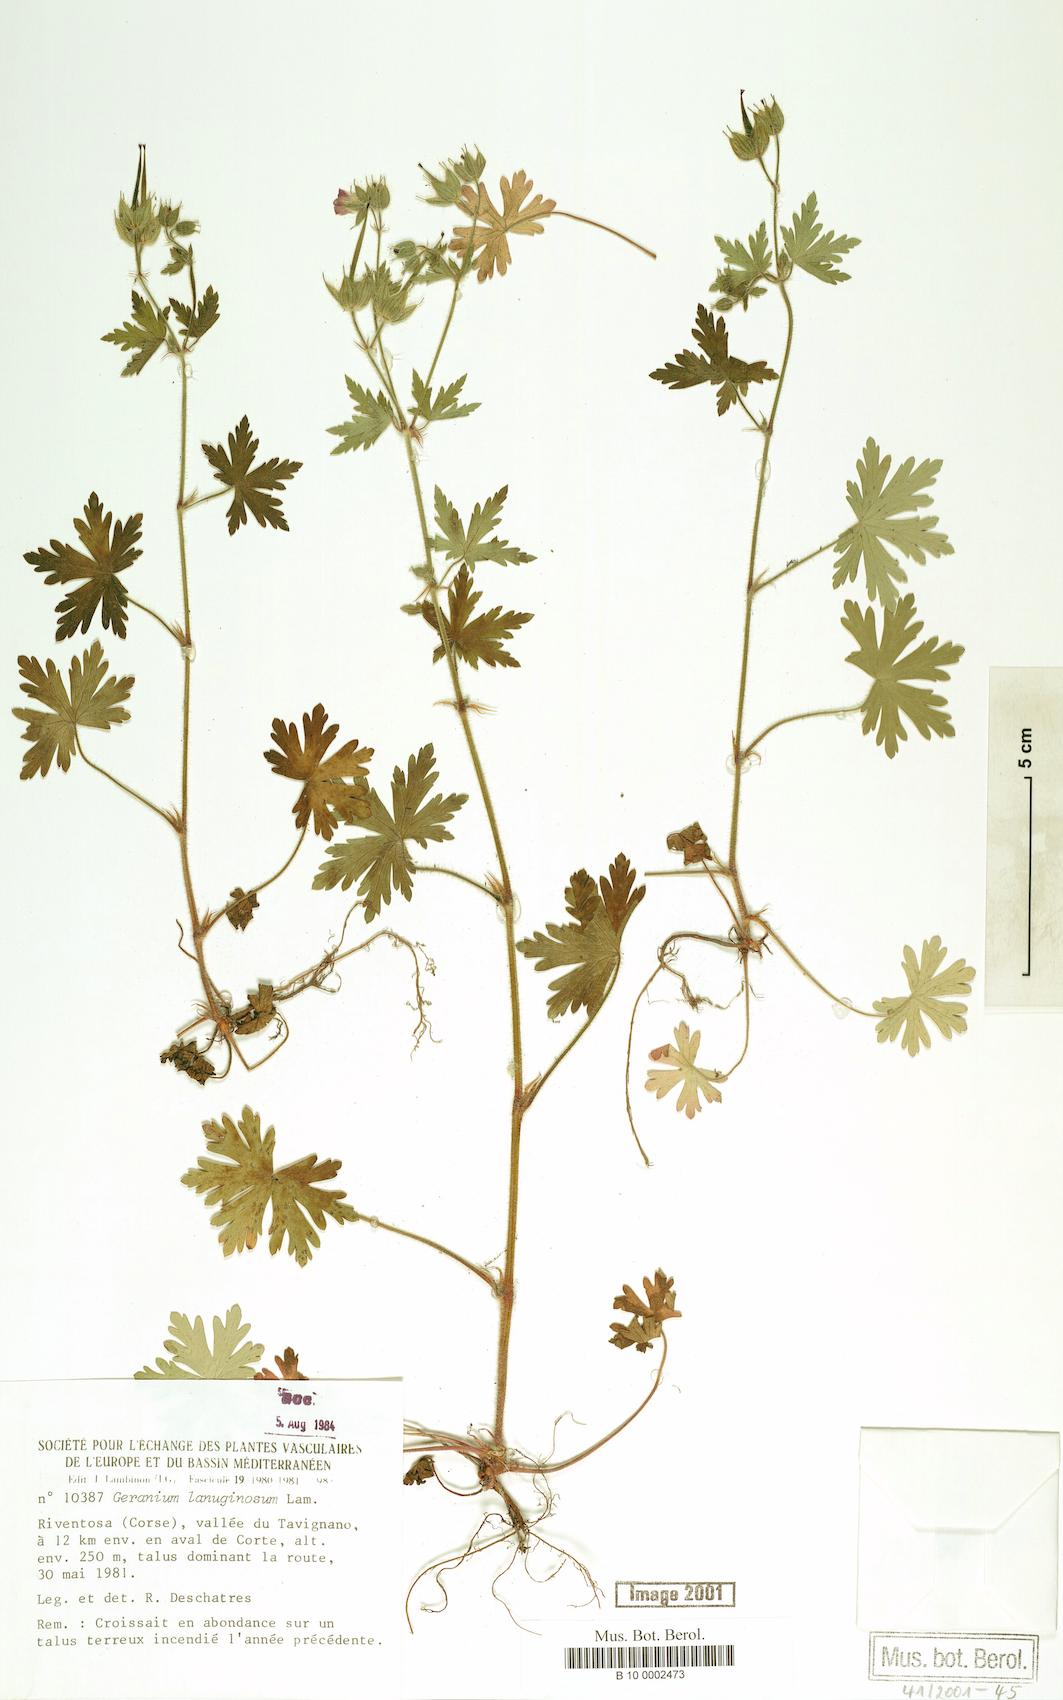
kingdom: Plantae
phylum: Tracheophyta
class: Magnoliopsida
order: Geraniales
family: Geraniaceae
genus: Geranium
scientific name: Geranium lanuginosum
